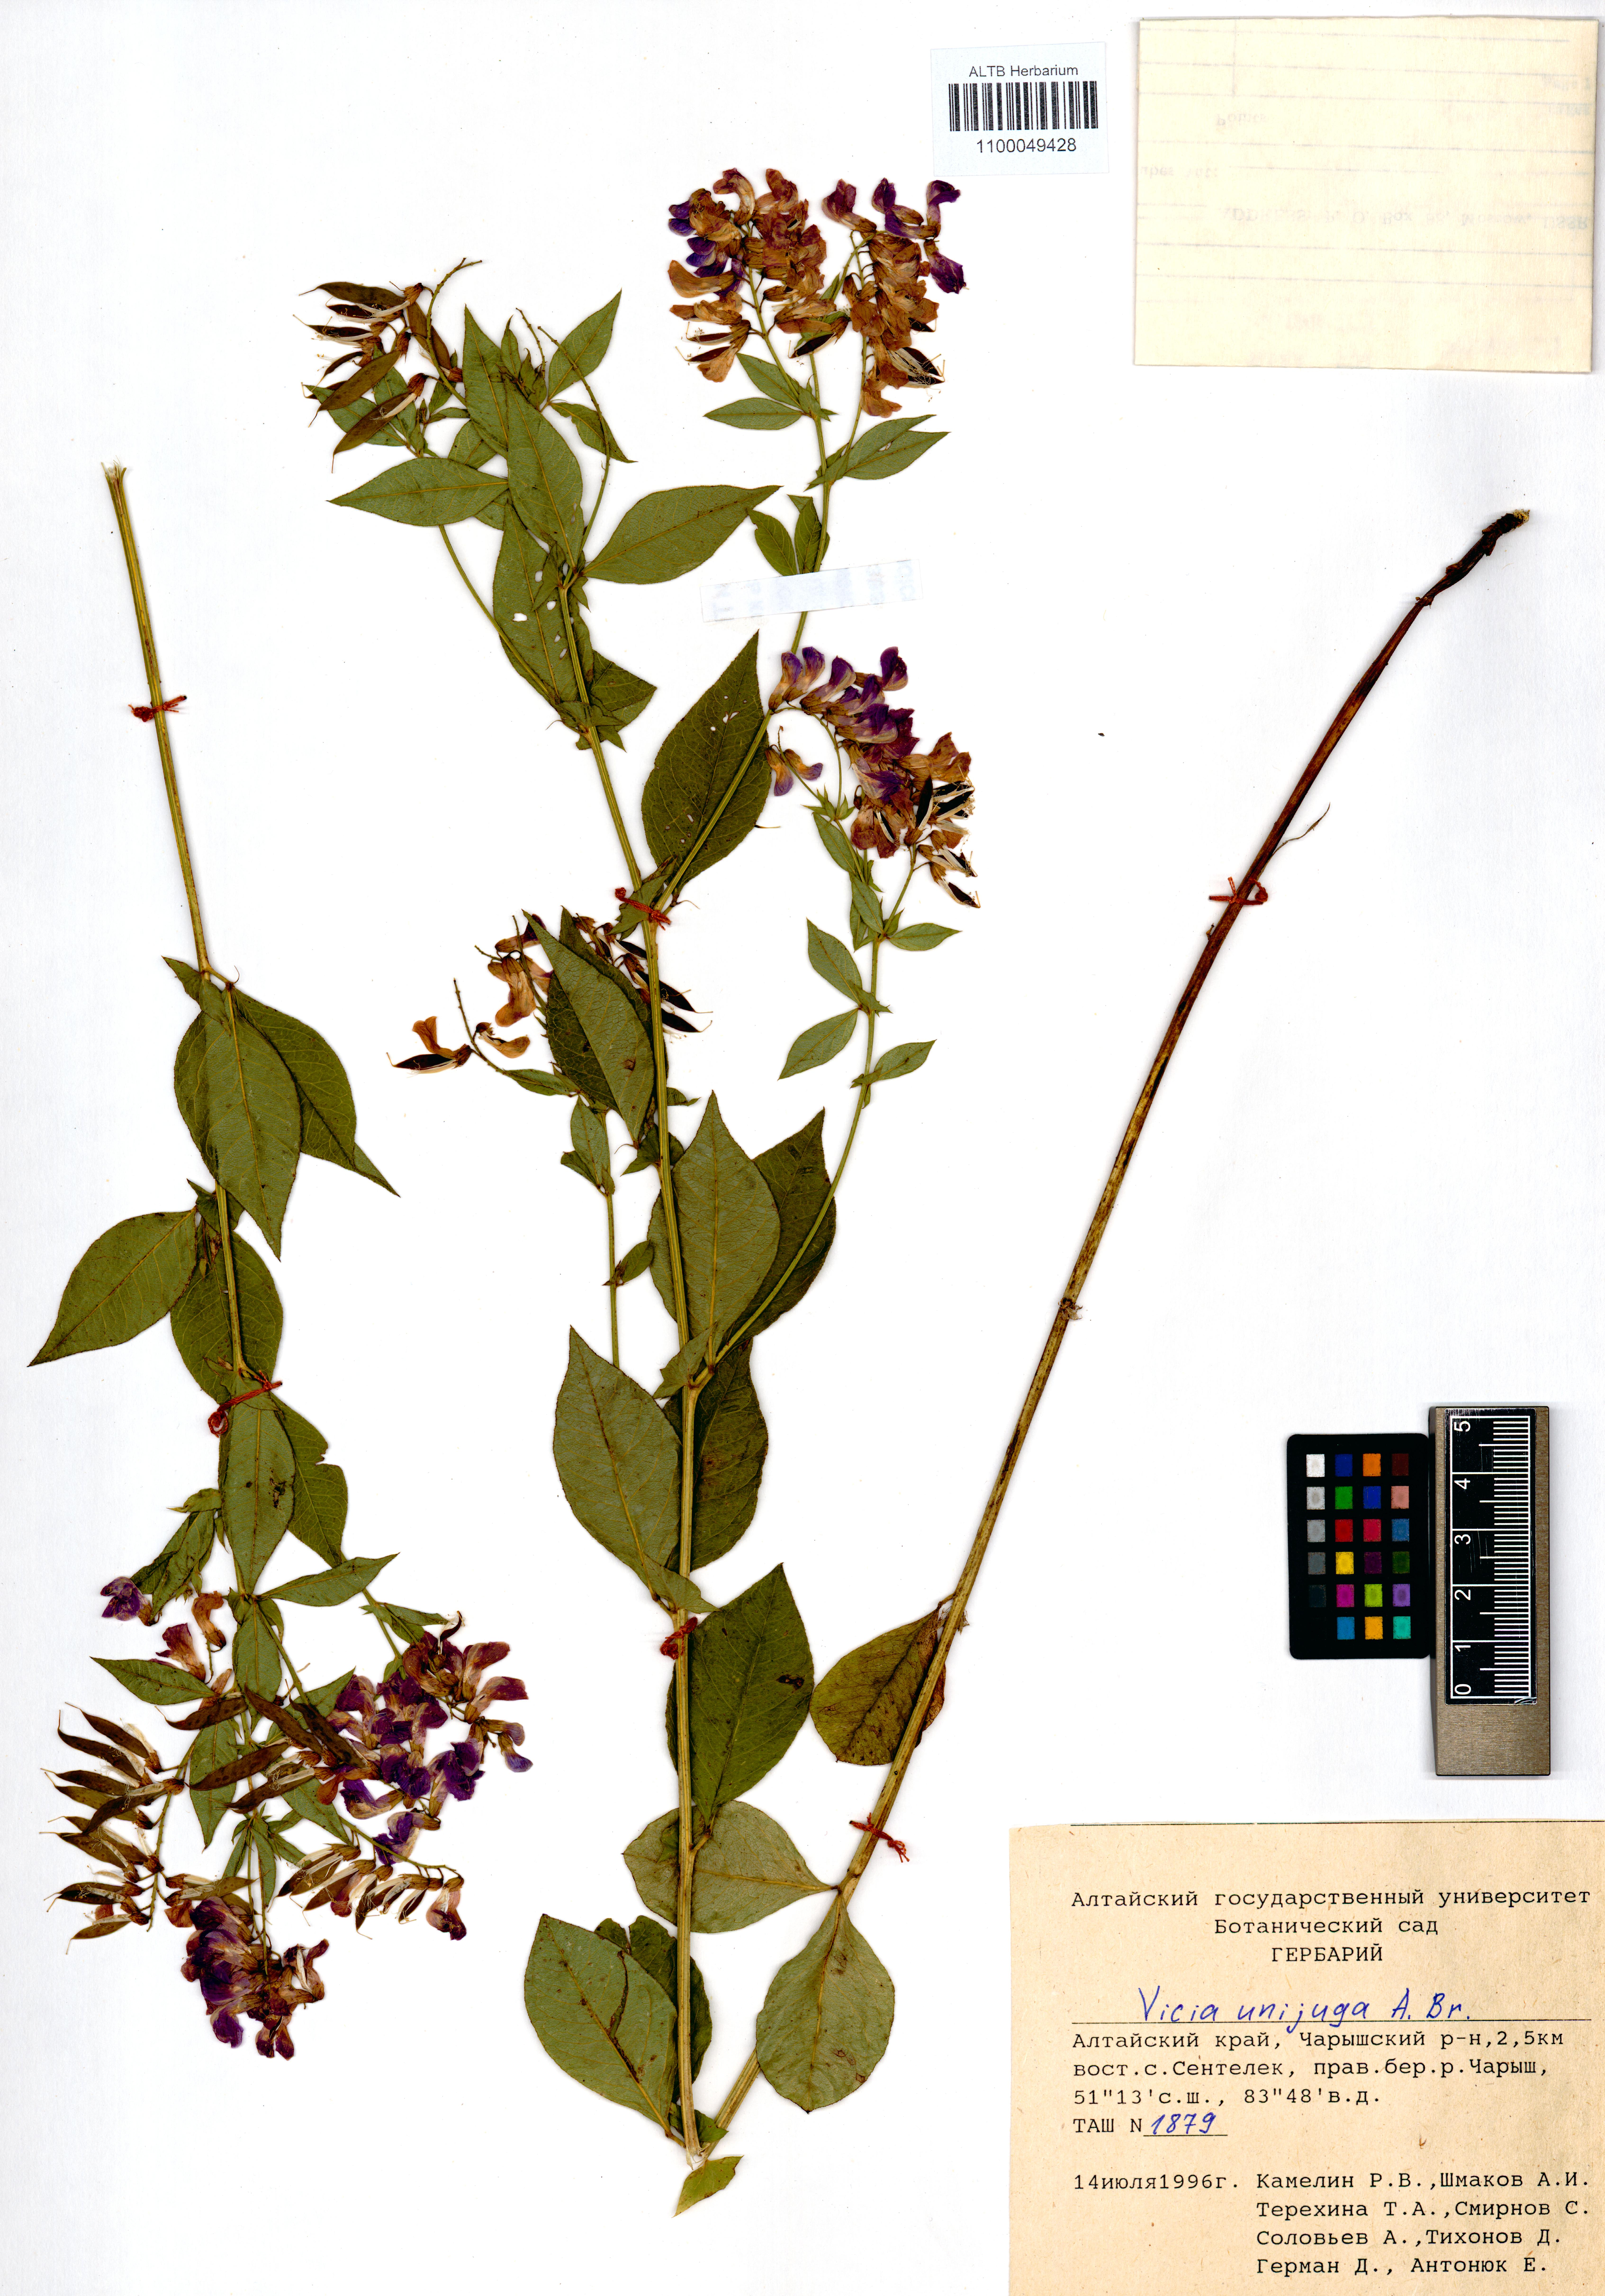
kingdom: Plantae
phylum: Tracheophyta
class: Magnoliopsida
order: Fabales
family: Fabaceae
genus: Vicia
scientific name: Vicia unijuga
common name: Two-leaf vetch
